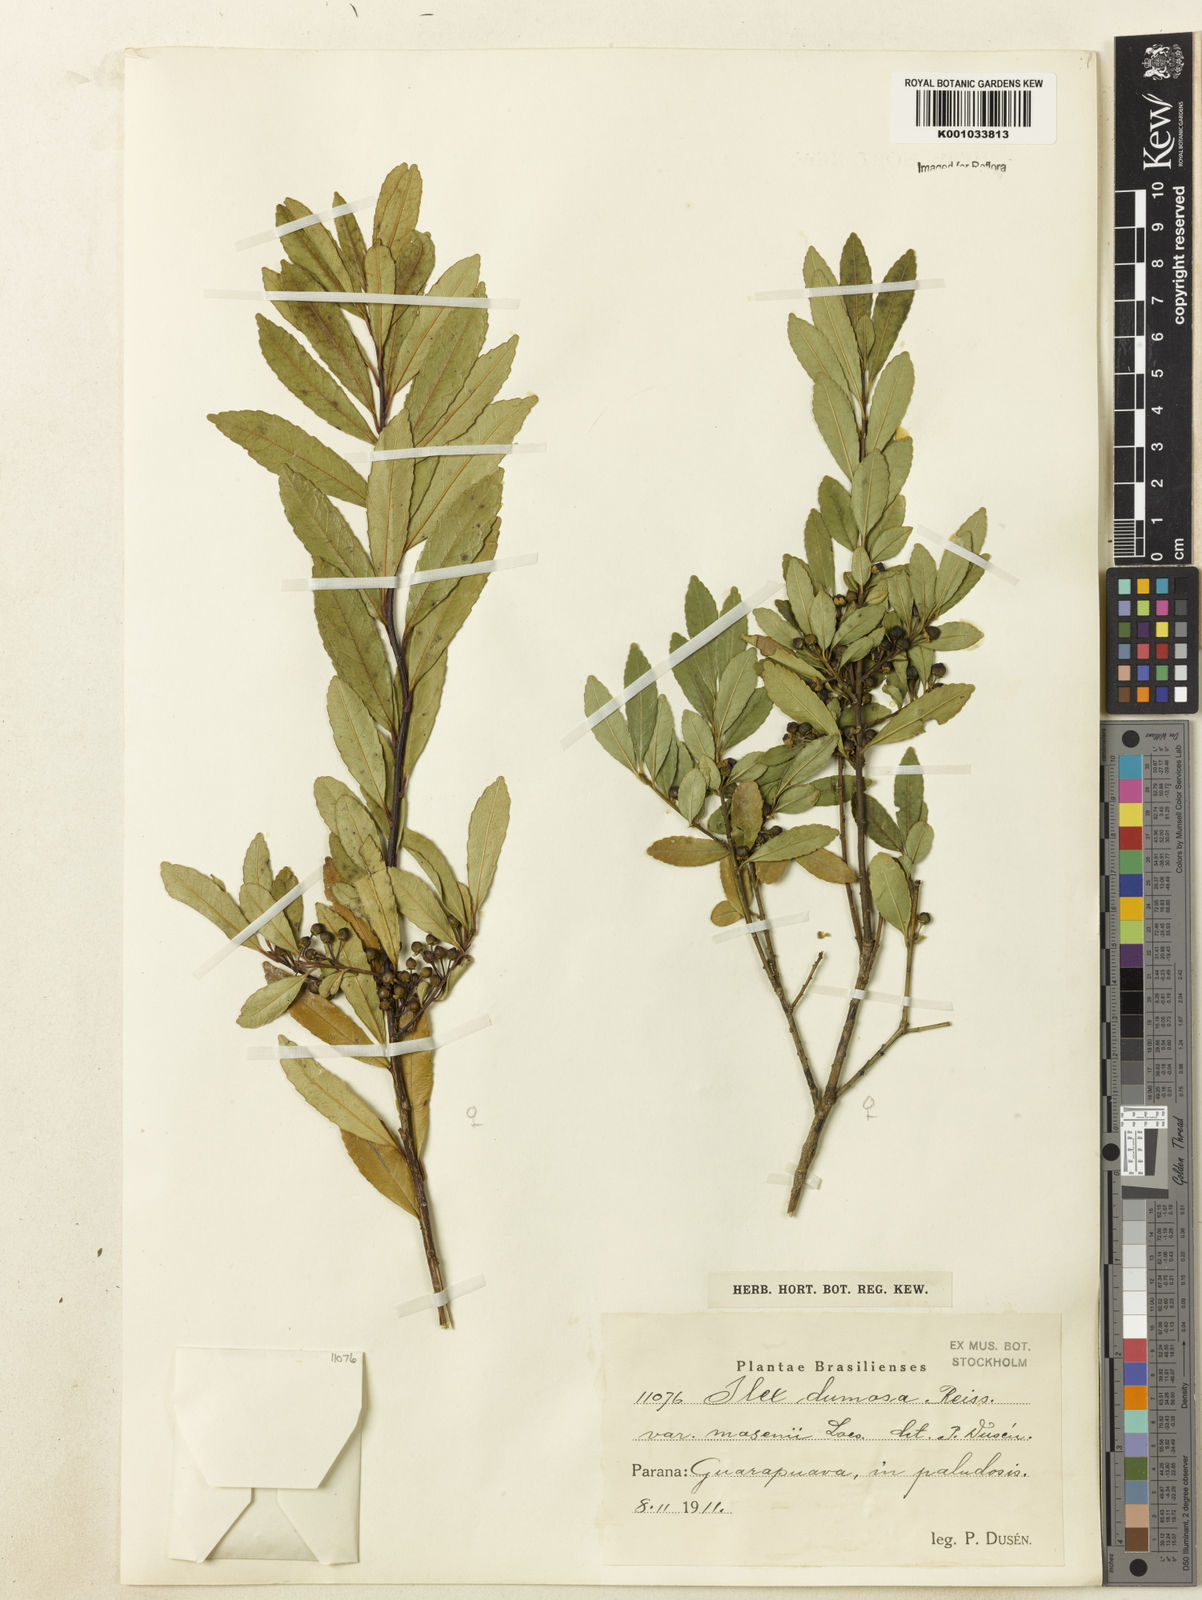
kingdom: Plantae
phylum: Tracheophyta
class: Magnoliopsida
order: Aquifoliales
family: Aquifoliaceae
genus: Ilex
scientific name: Ilex dumosa
